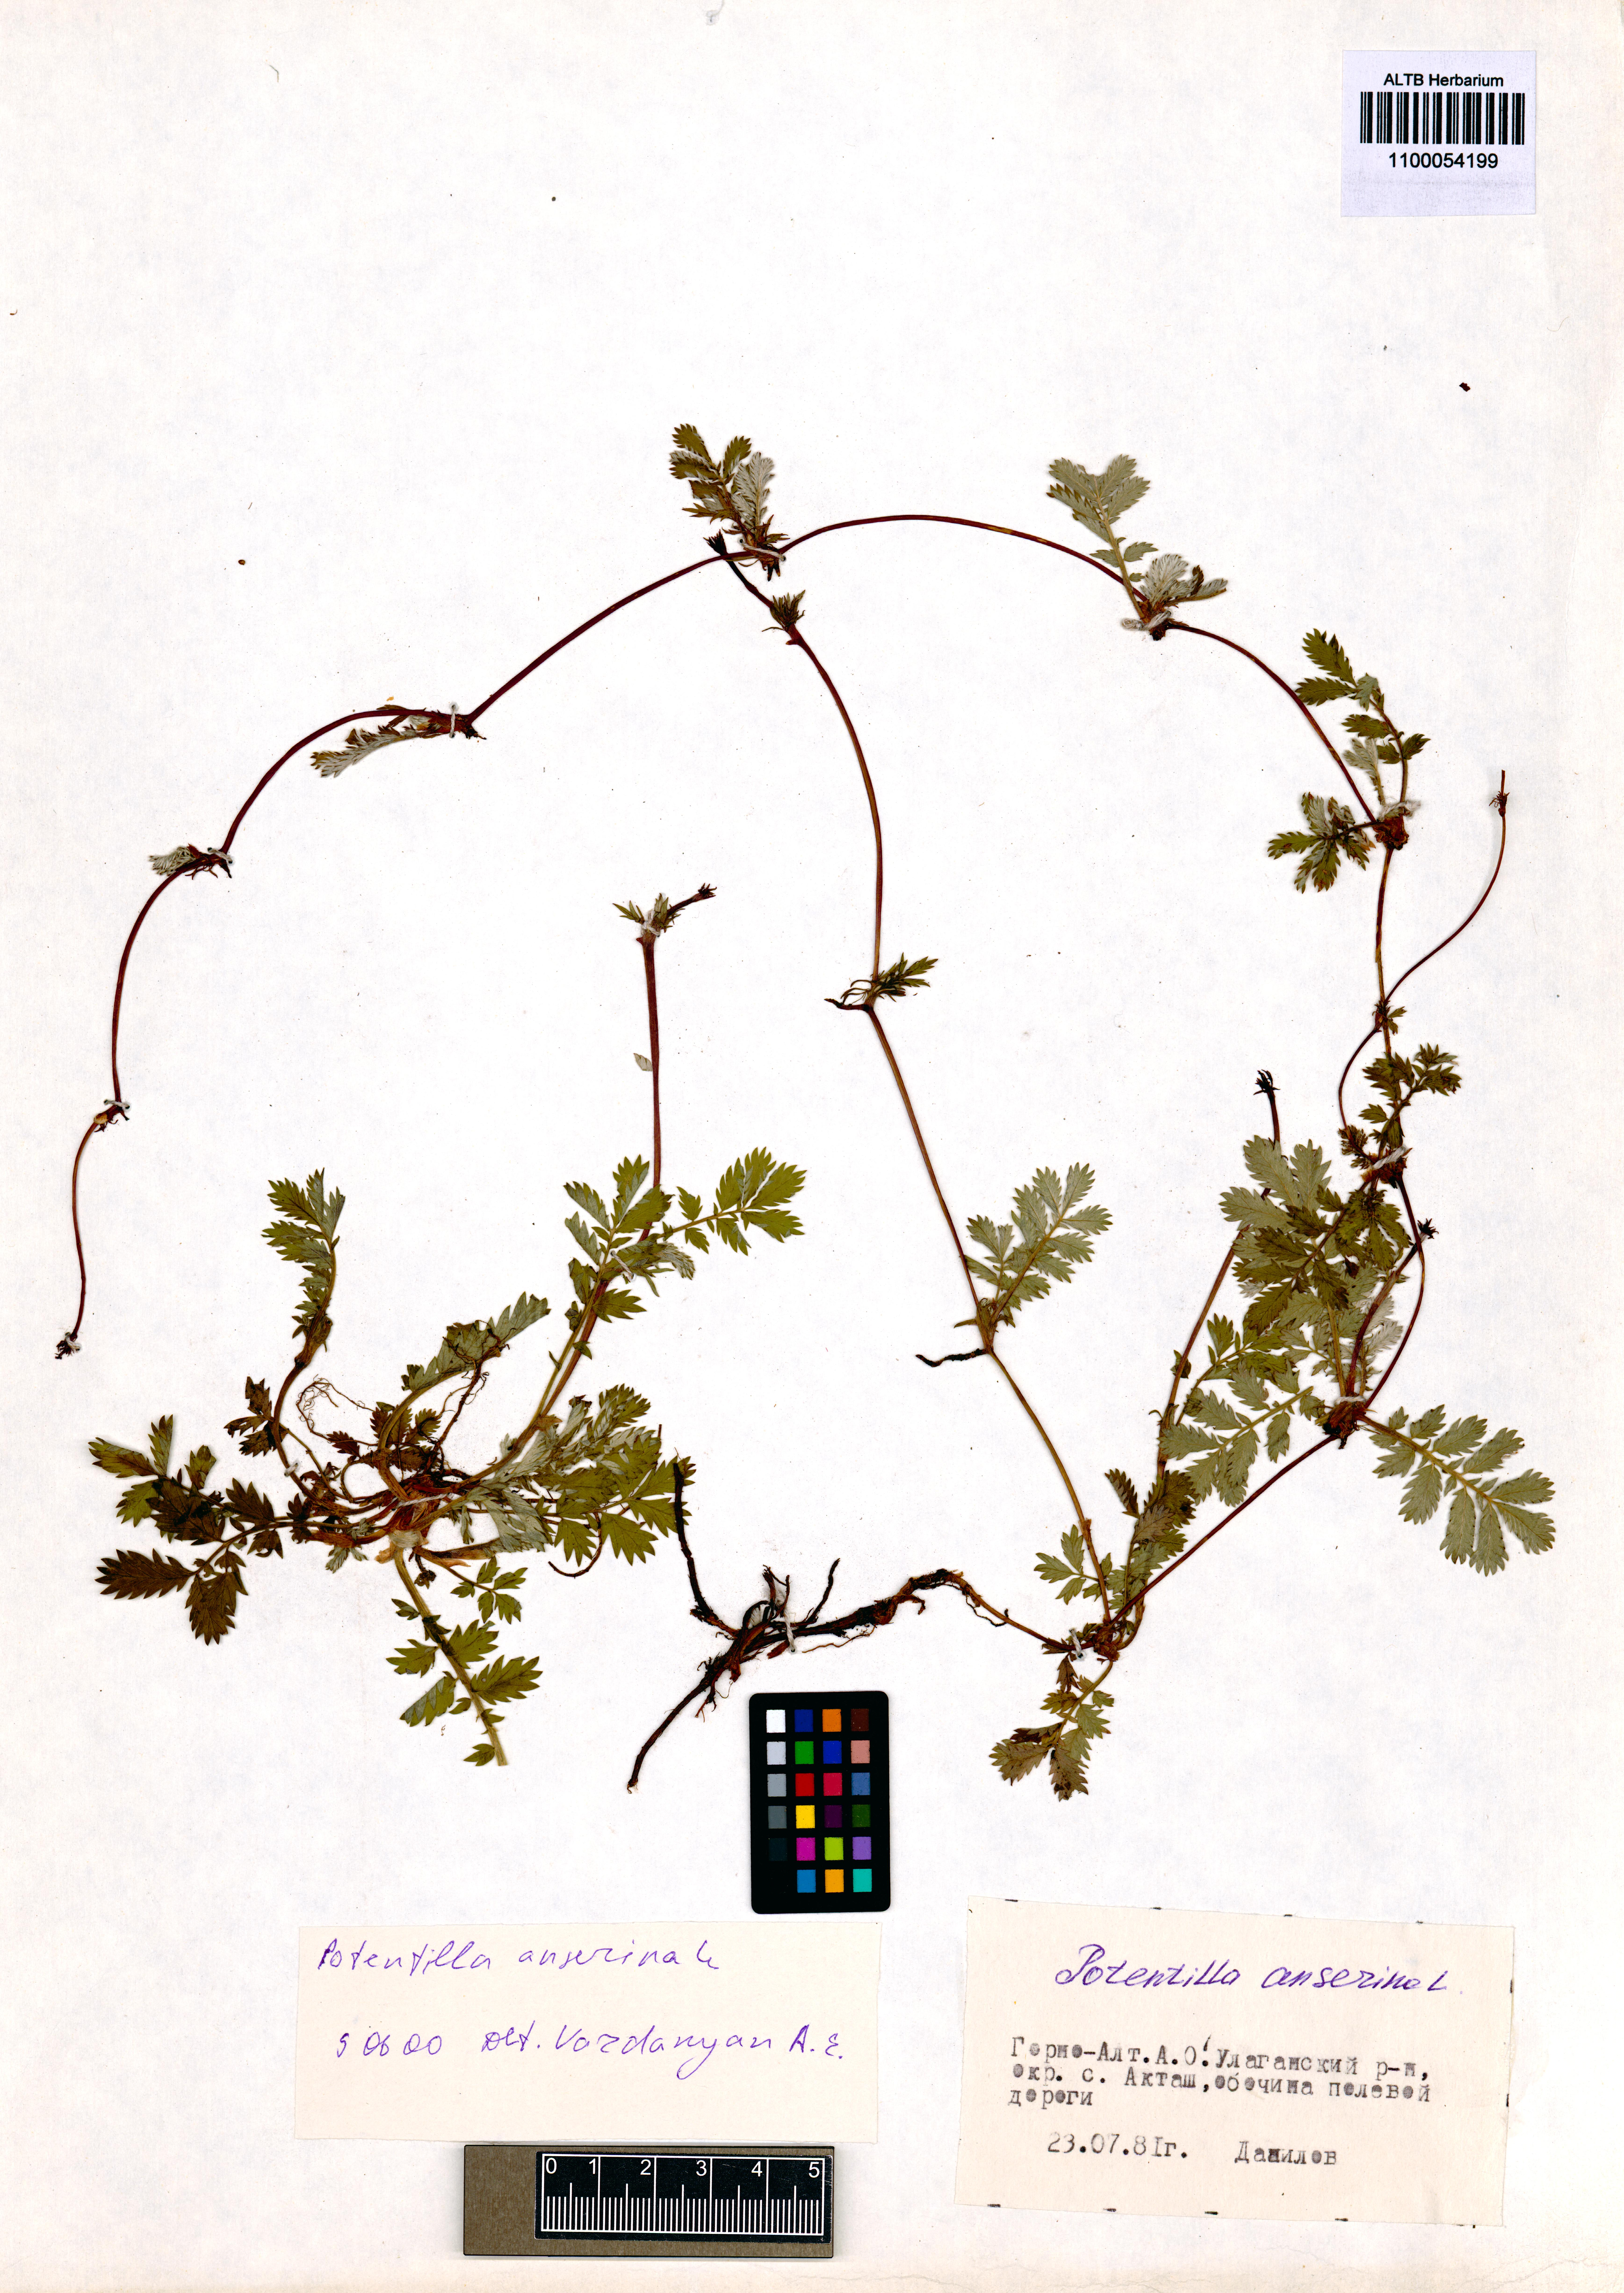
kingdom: Plantae
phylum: Tracheophyta
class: Magnoliopsida
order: Rosales
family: Rosaceae
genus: Argentina
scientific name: Argentina anserina
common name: Common silverweed
